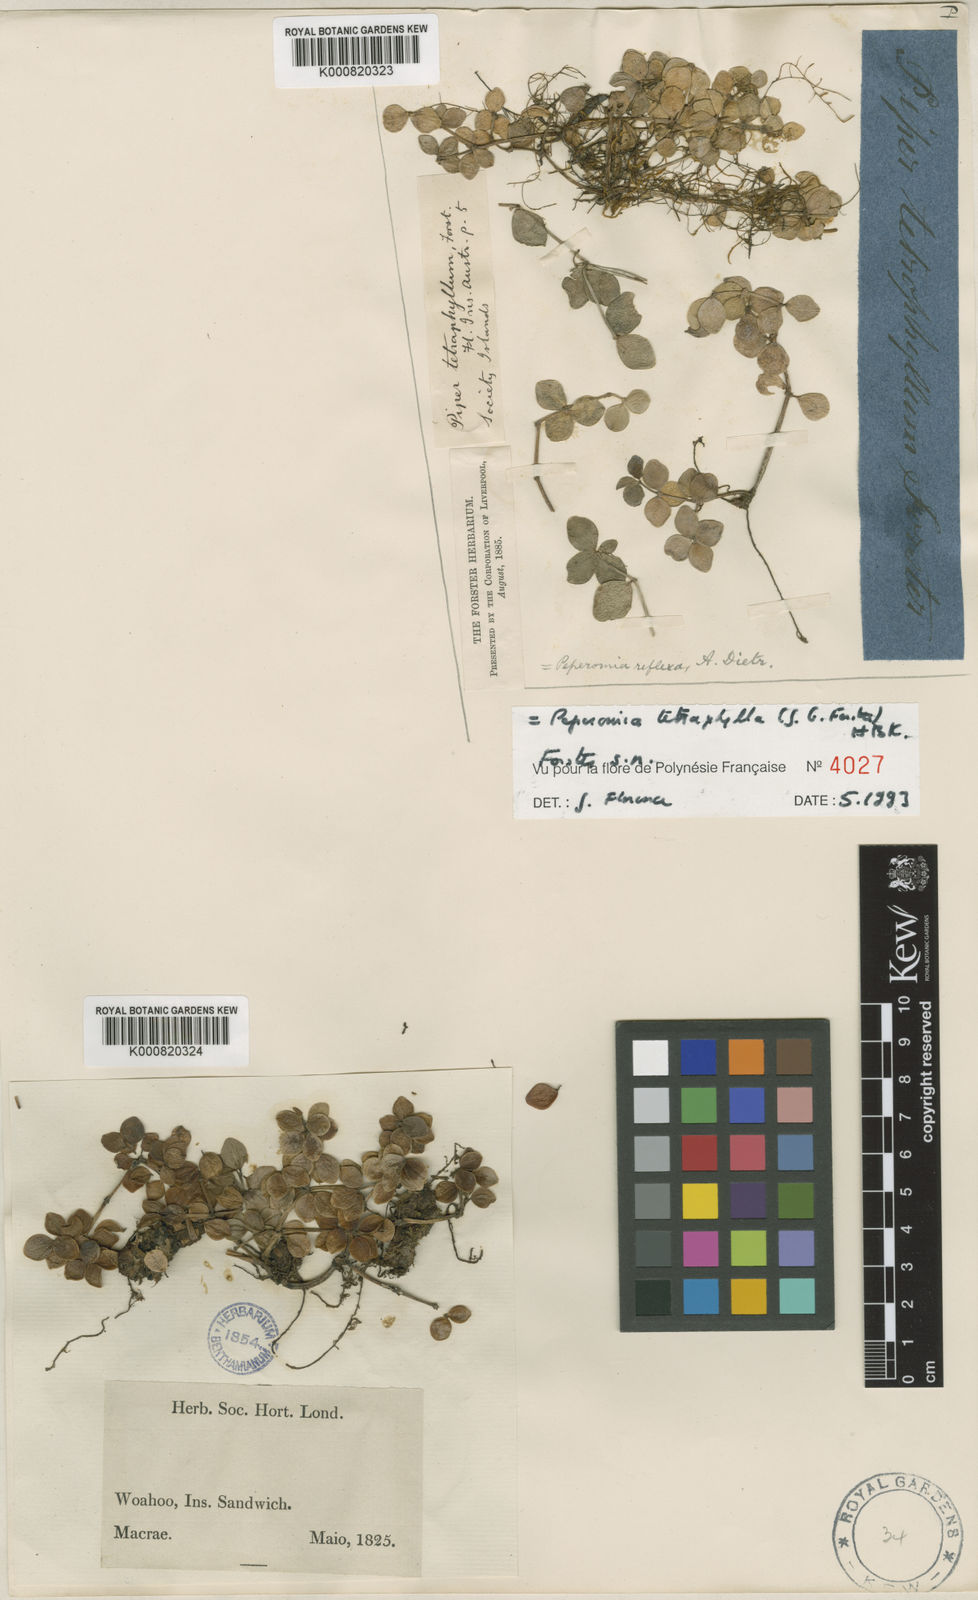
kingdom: Plantae
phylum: Tracheophyta
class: Magnoliopsida
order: Piperales
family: Piperaceae
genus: Peperomia
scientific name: Peperomia tetraphylla
